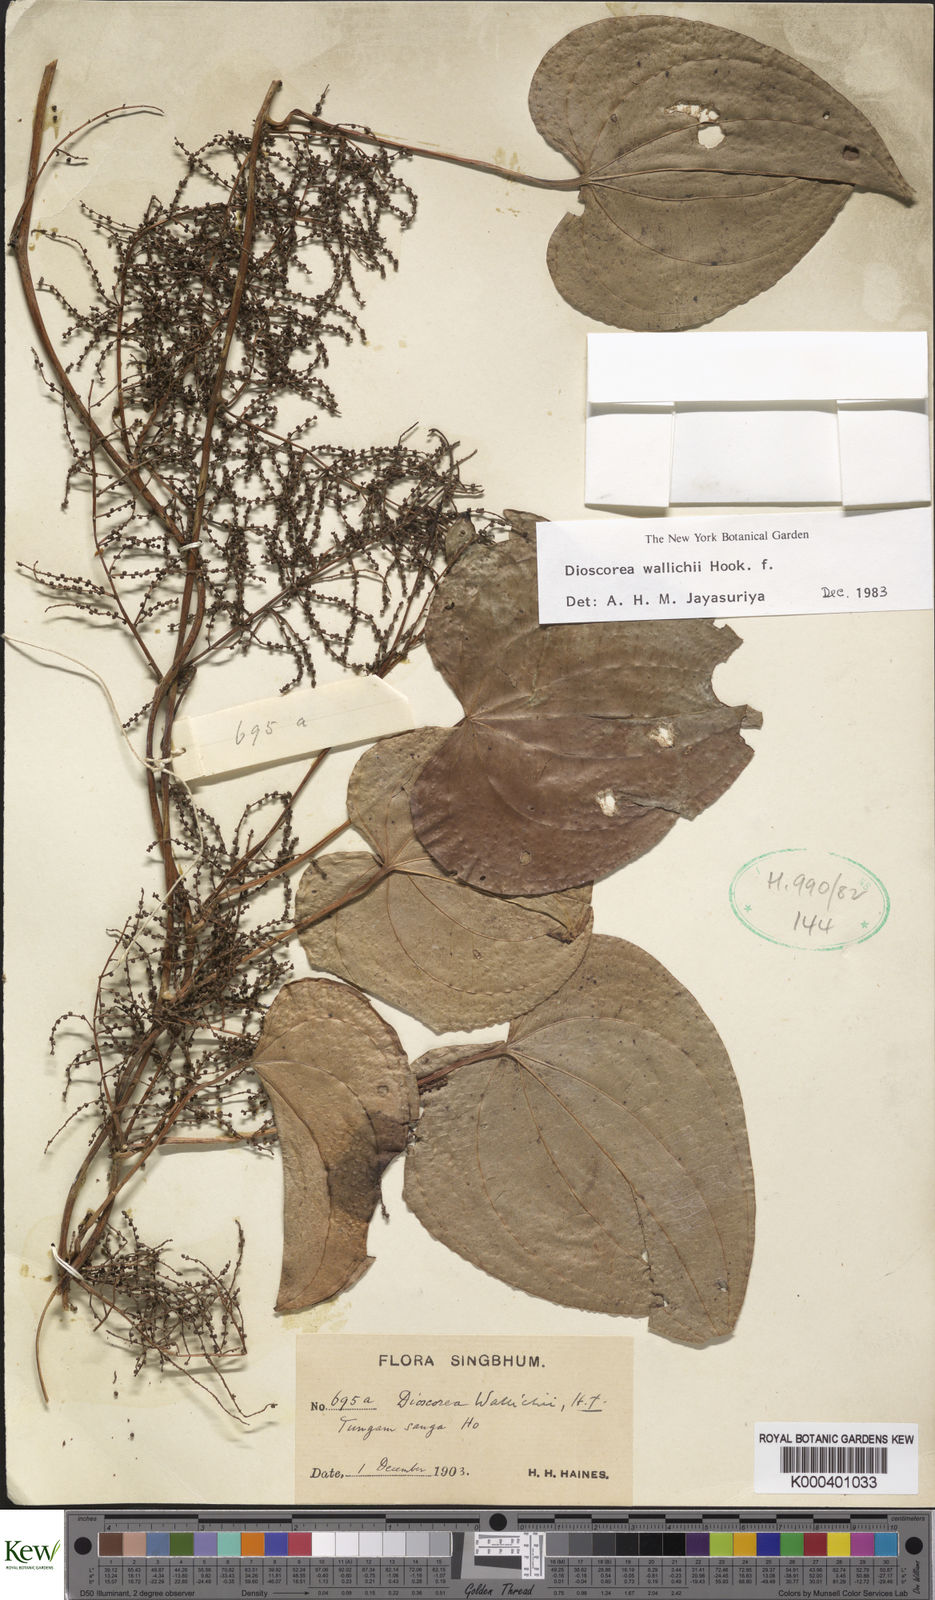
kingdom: Plantae
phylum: Tracheophyta
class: Liliopsida
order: Dioscoreales
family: Dioscoreaceae
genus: Dioscorea
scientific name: Dioscorea wallichii
